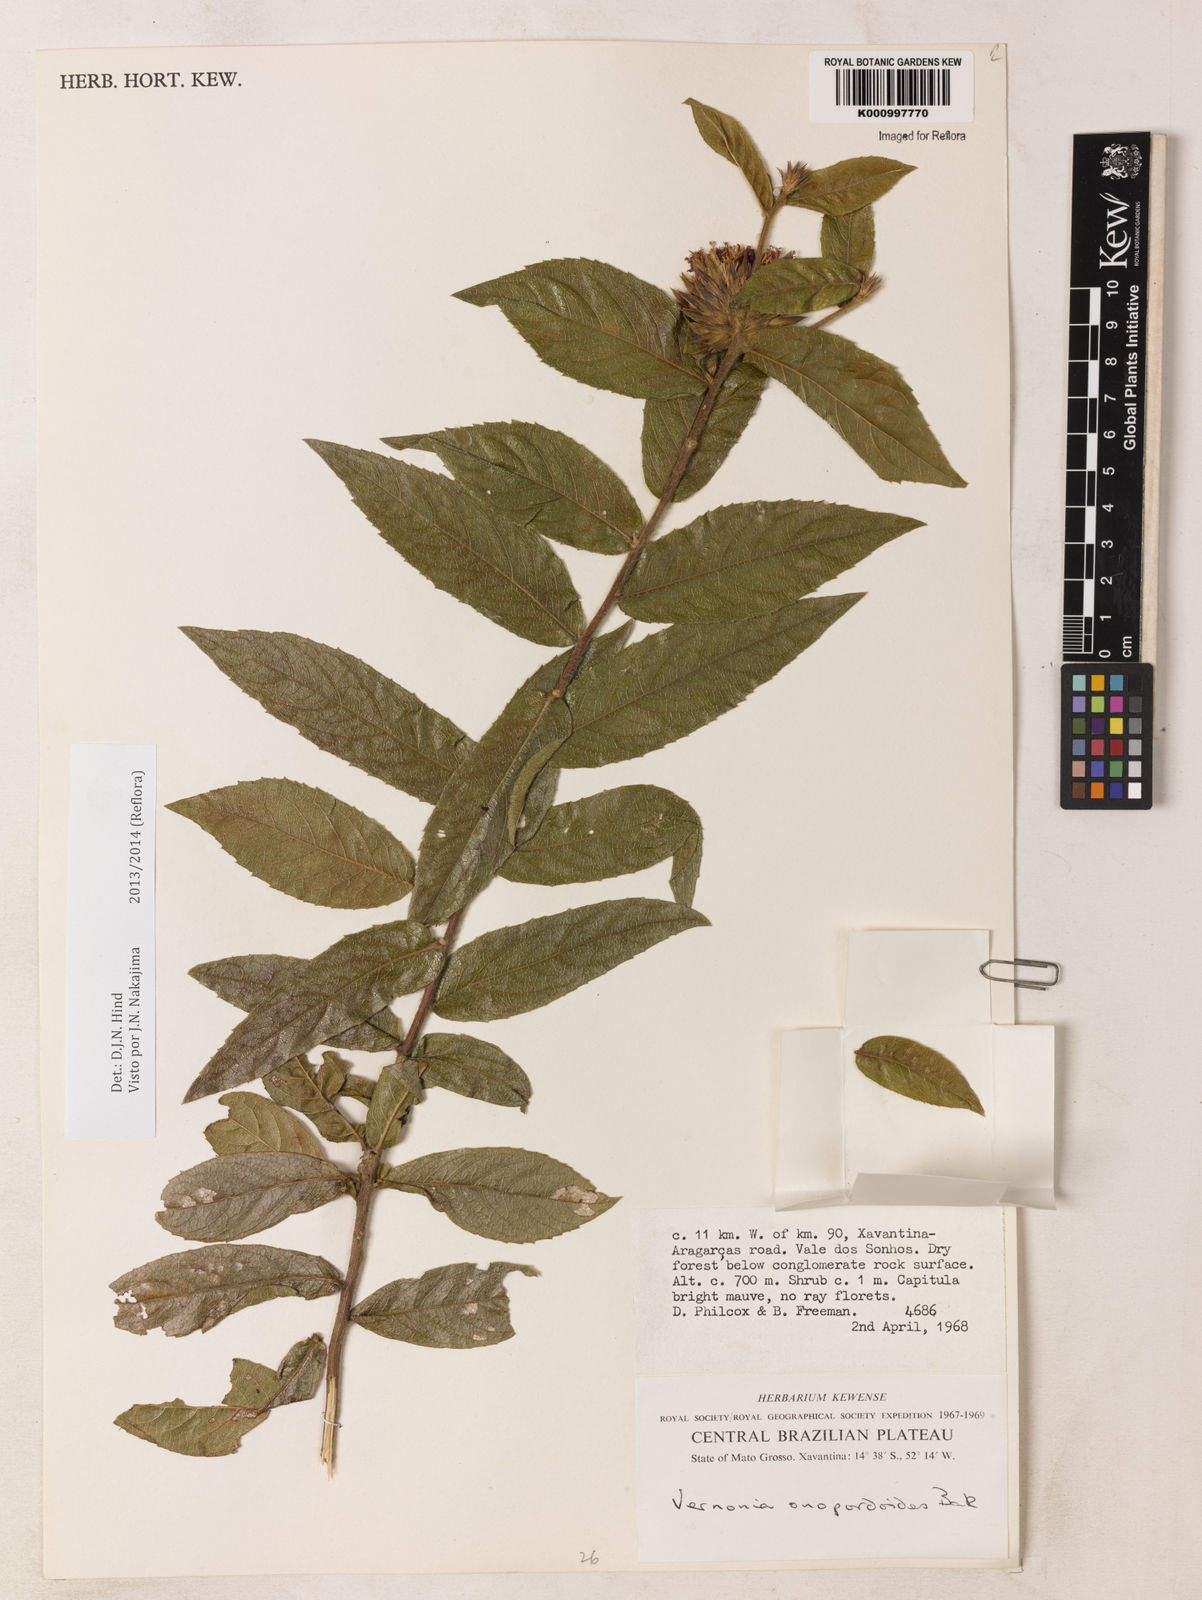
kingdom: Plantae
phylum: Tracheophyta
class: Magnoliopsida
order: Asterales
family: Asteraceae
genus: Lessingianthus
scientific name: Lessingianthus onopordioides
